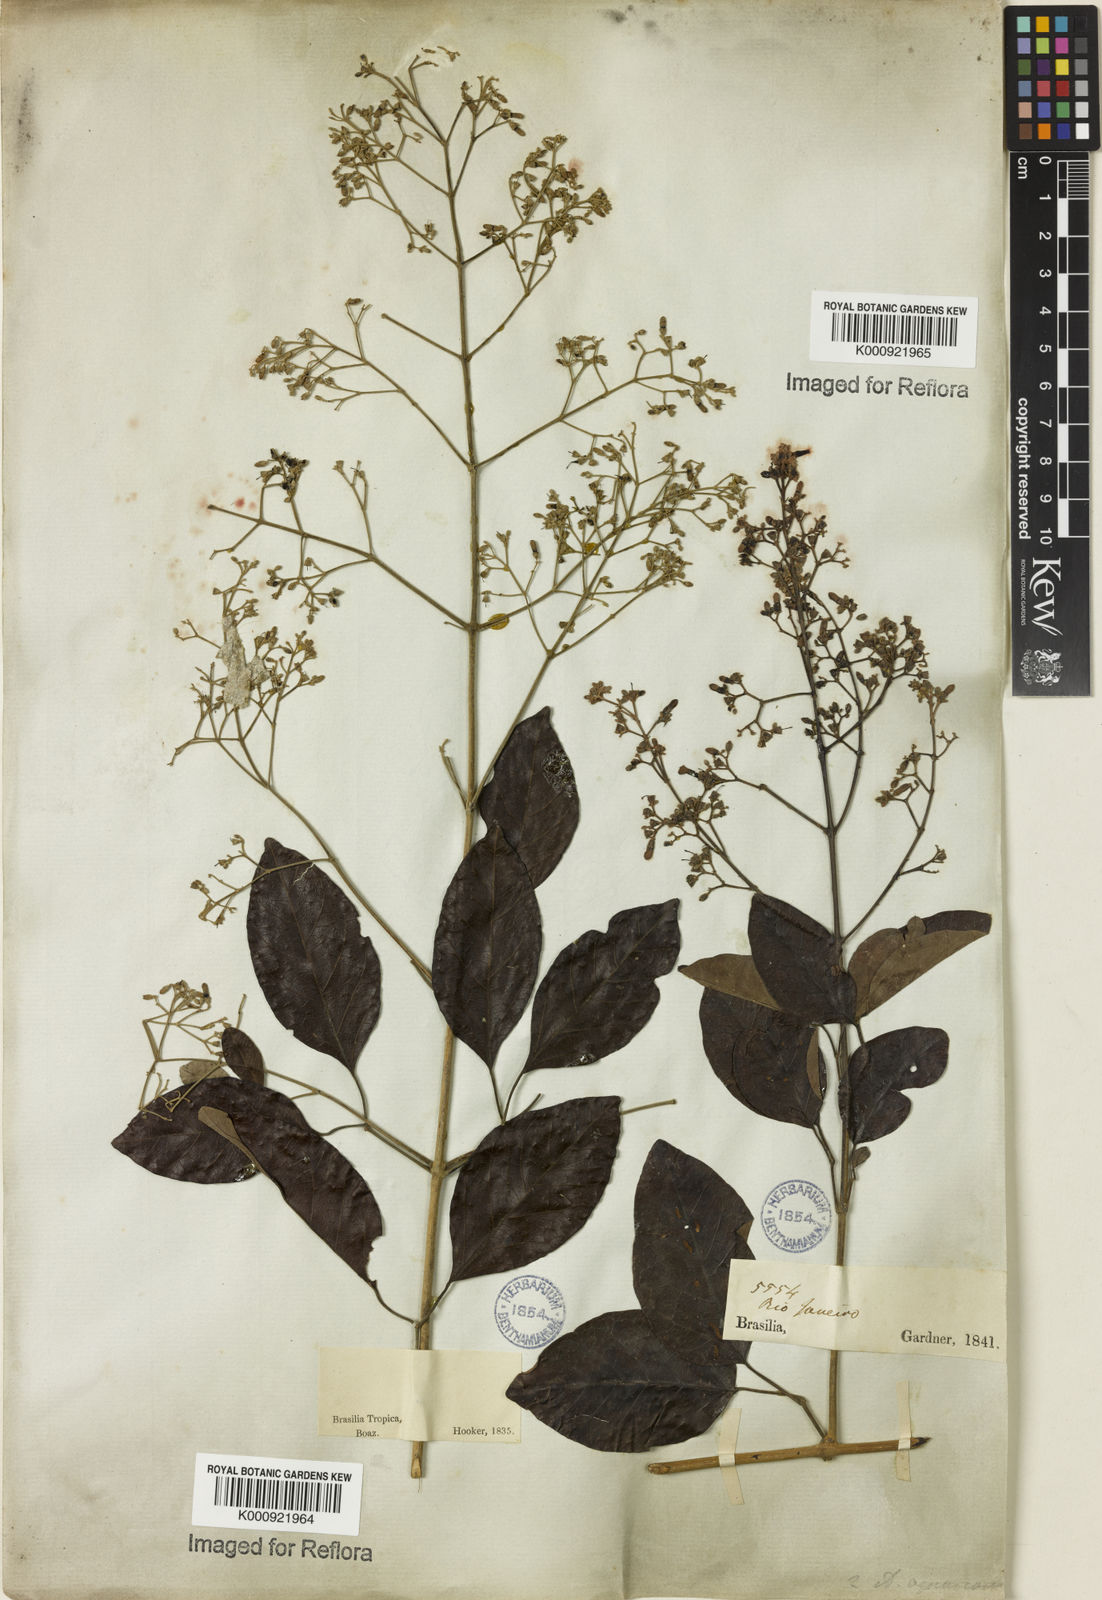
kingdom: Plantae
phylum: Tracheophyta
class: Magnoliopsida
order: Lamiales
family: Bignoniaceae
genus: Fridericia
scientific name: Fridericia rego
